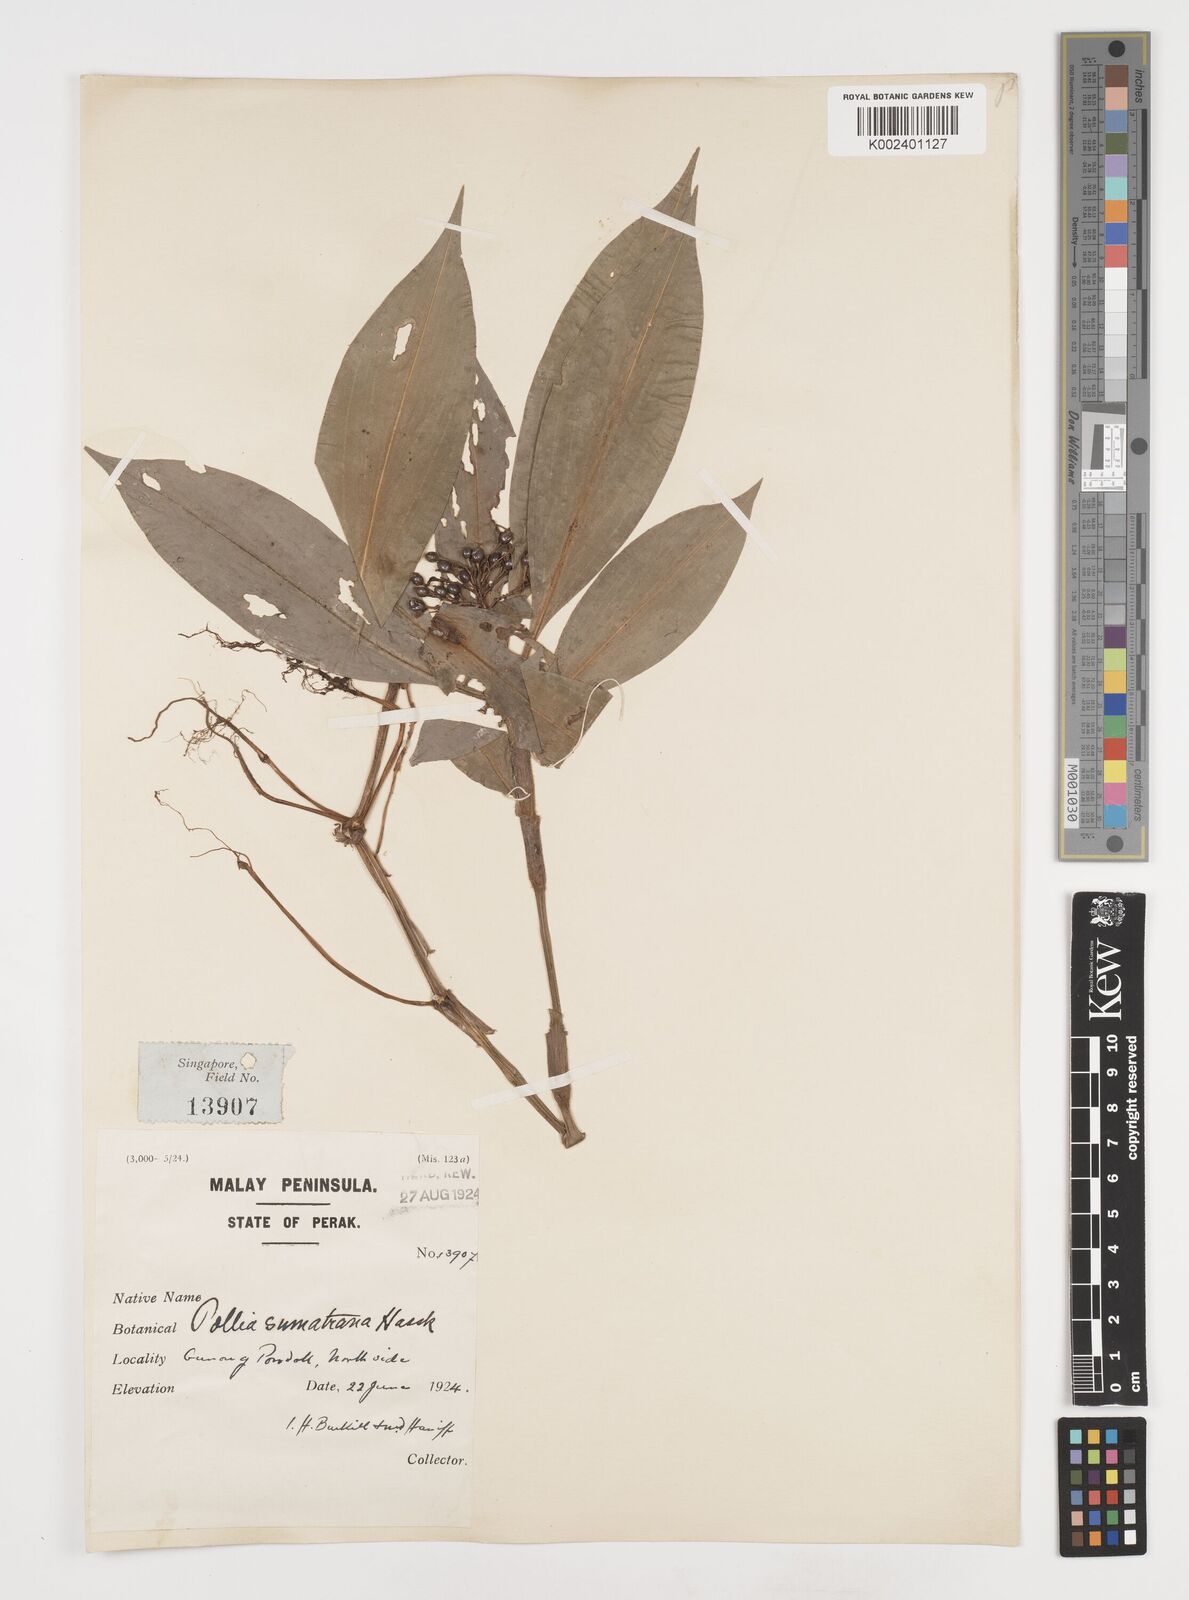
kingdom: Plantae
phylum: Tracheophyta
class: Liliopsida
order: Commelinales
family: Commelinaceae
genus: Pollia
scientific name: Pollia sumatrana
